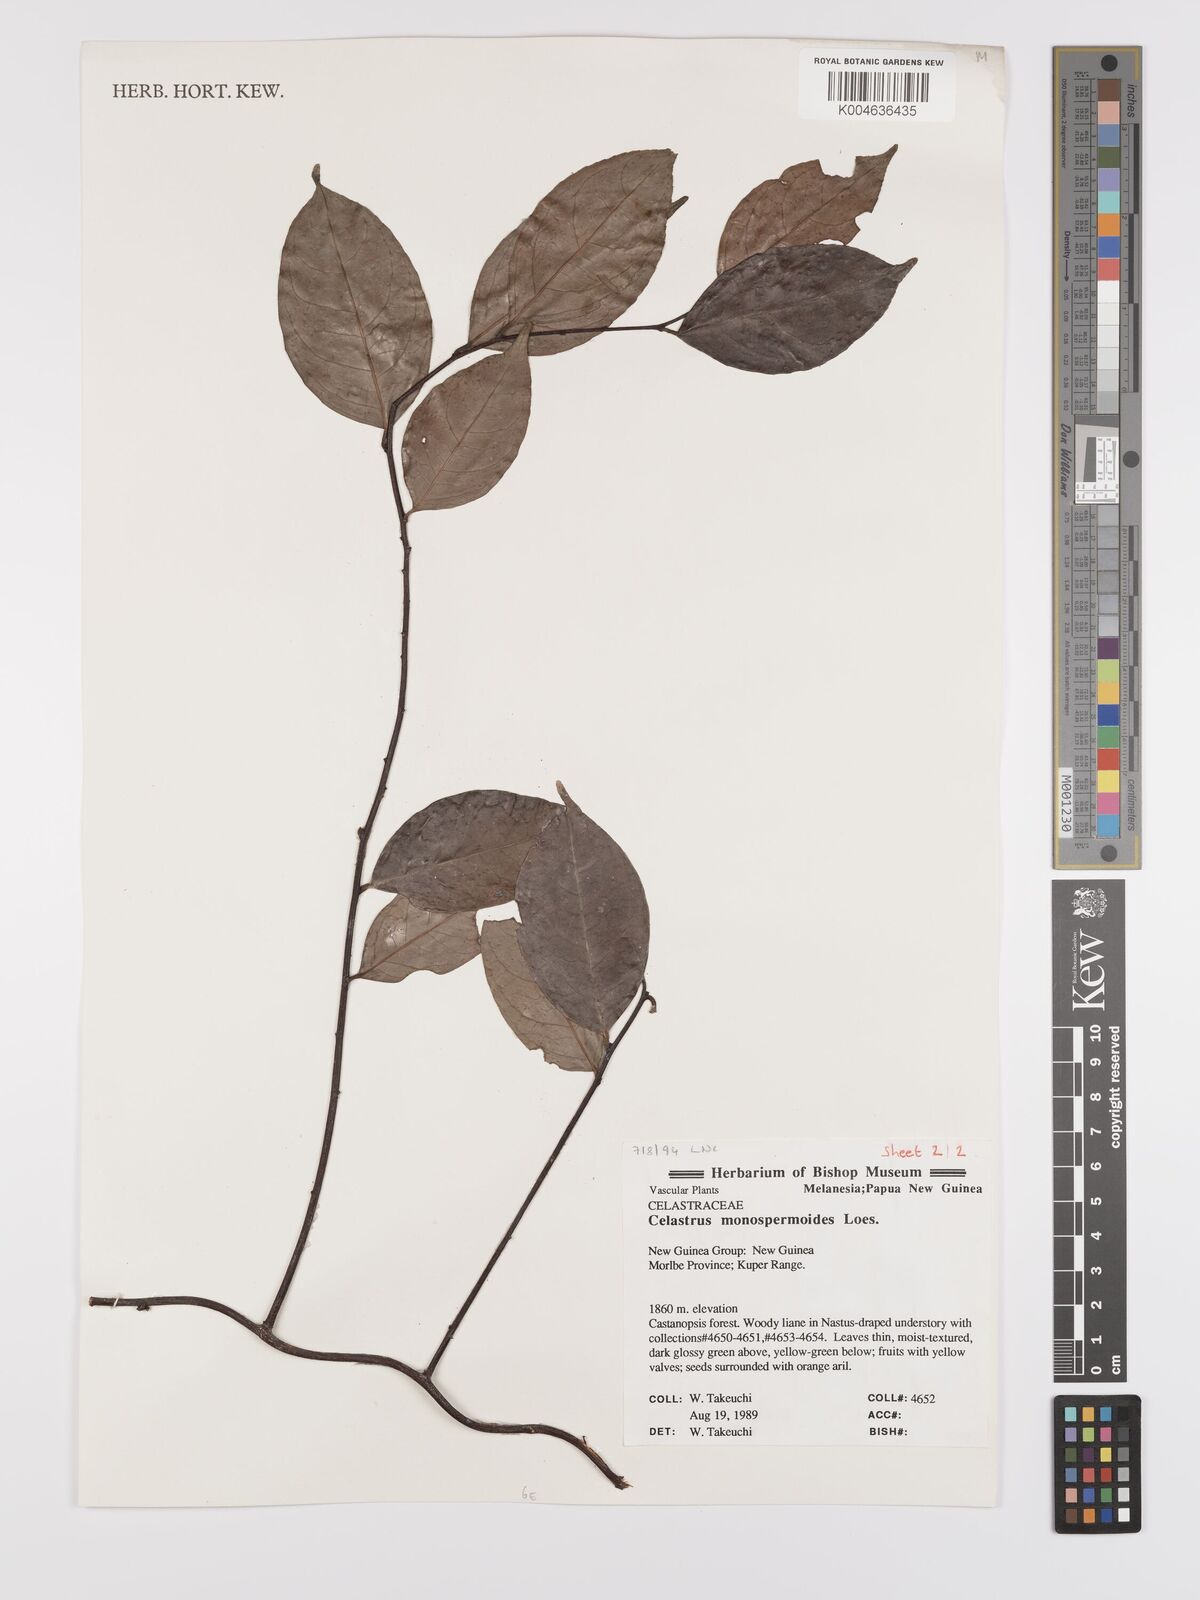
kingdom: Plantae
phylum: Tracheophyta
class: Magnoliopsida
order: Celastrales
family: Celastraceae
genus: Celastrus
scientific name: Celastrus monospermoides
